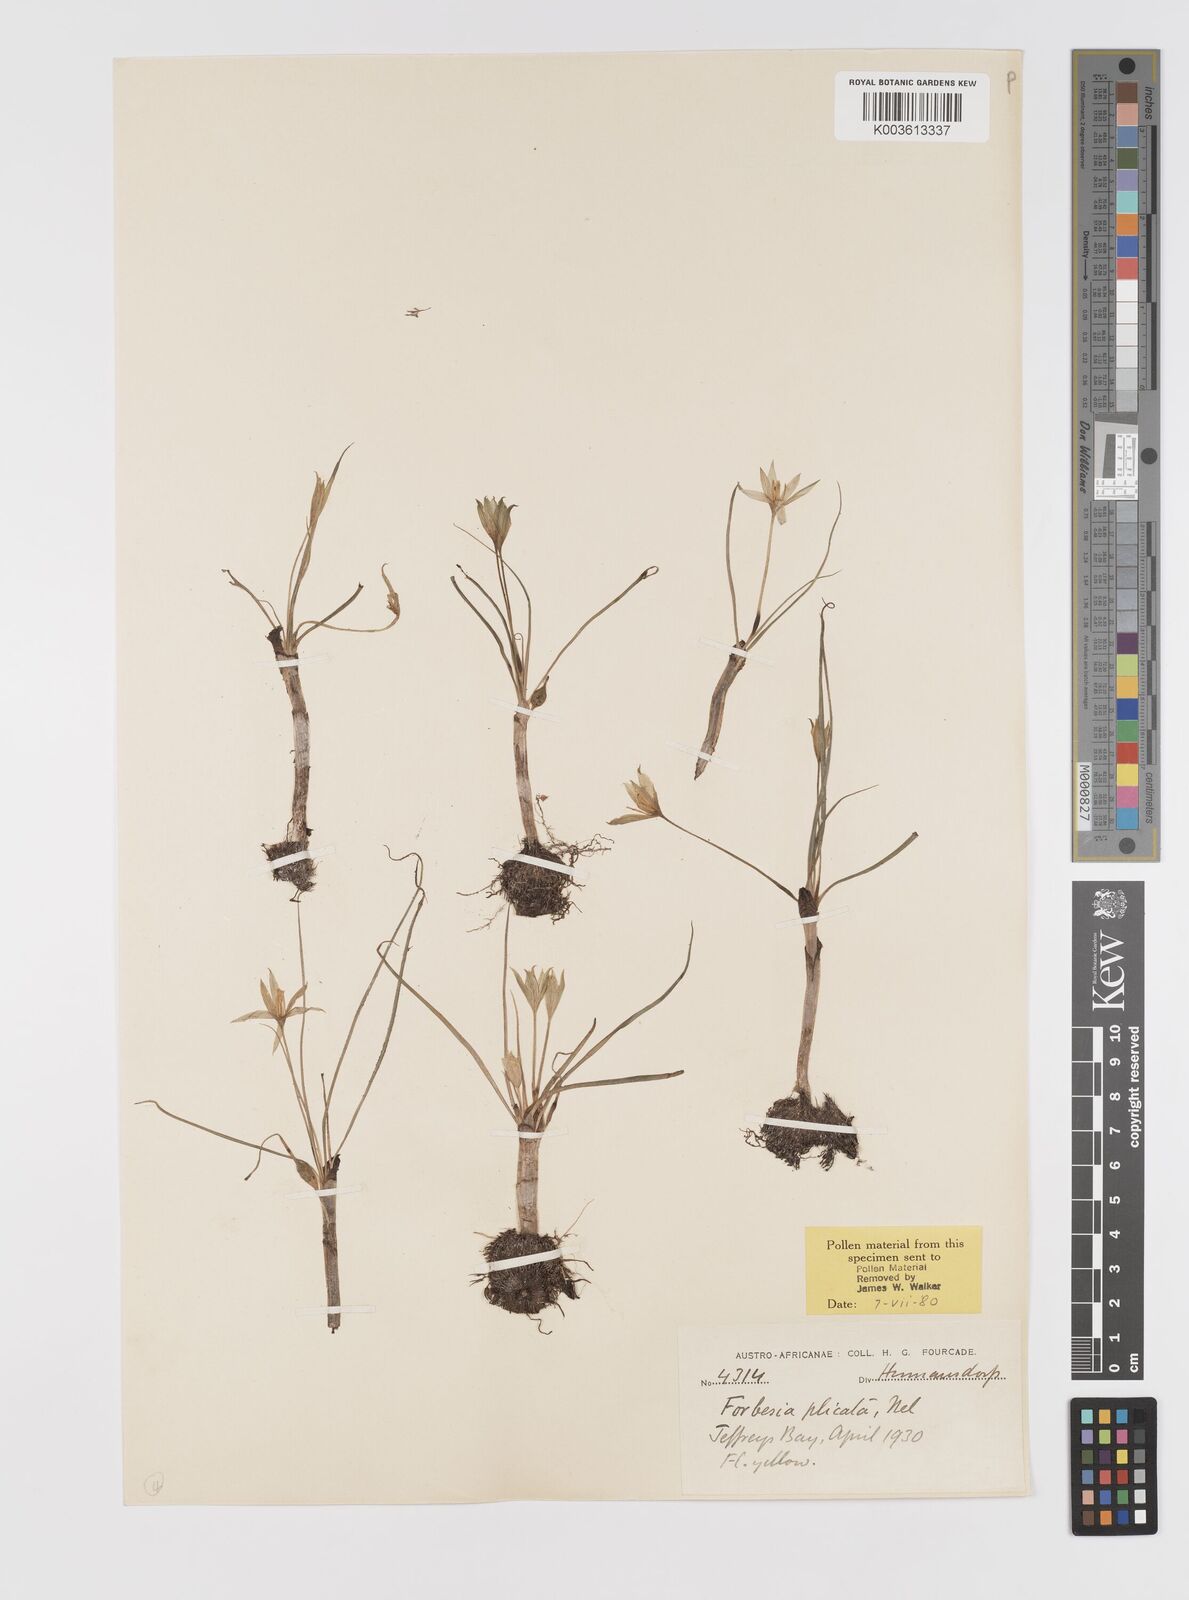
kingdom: Plantae
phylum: Tracheophyta
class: Liliopsida
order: Asparagales
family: Hypoxidaceae
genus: Empodium
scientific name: Empodium elongatum
